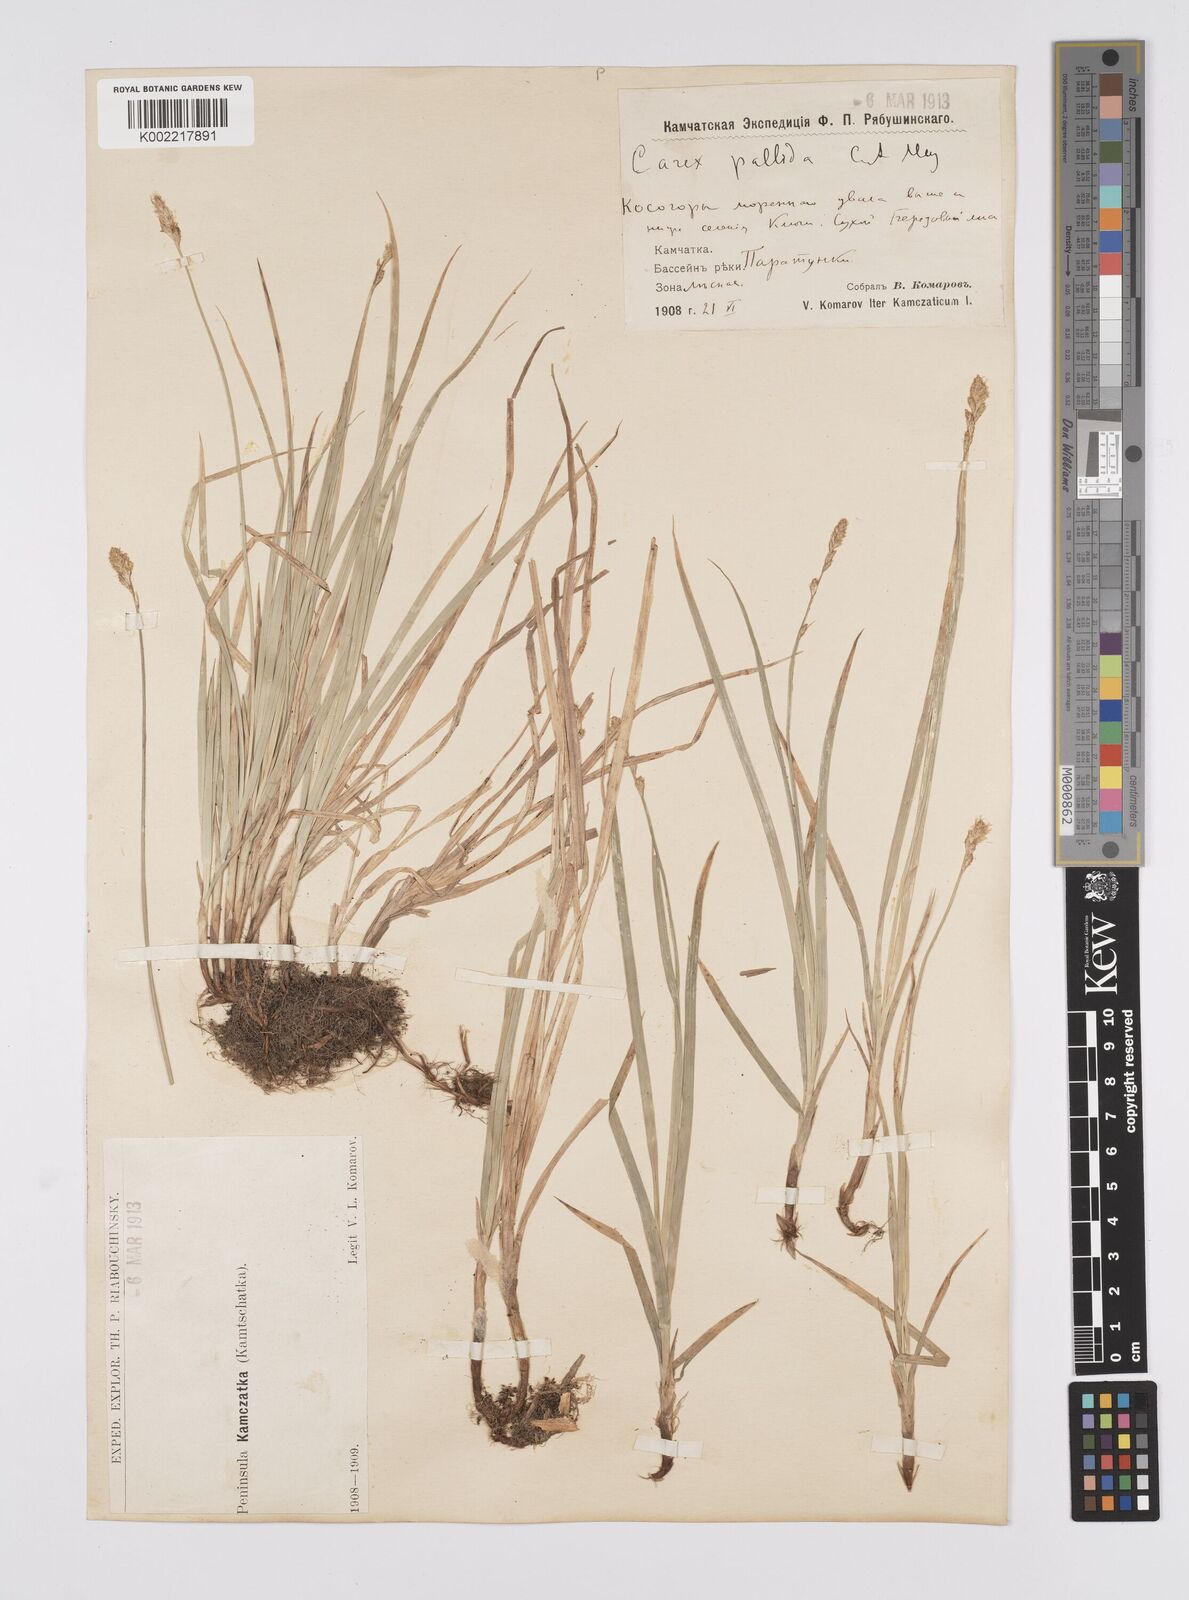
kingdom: Plantae
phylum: Tracheophyta
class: Liliopsida
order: Poales
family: Cyperaceae
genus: Carex
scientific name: Carex accrescens
